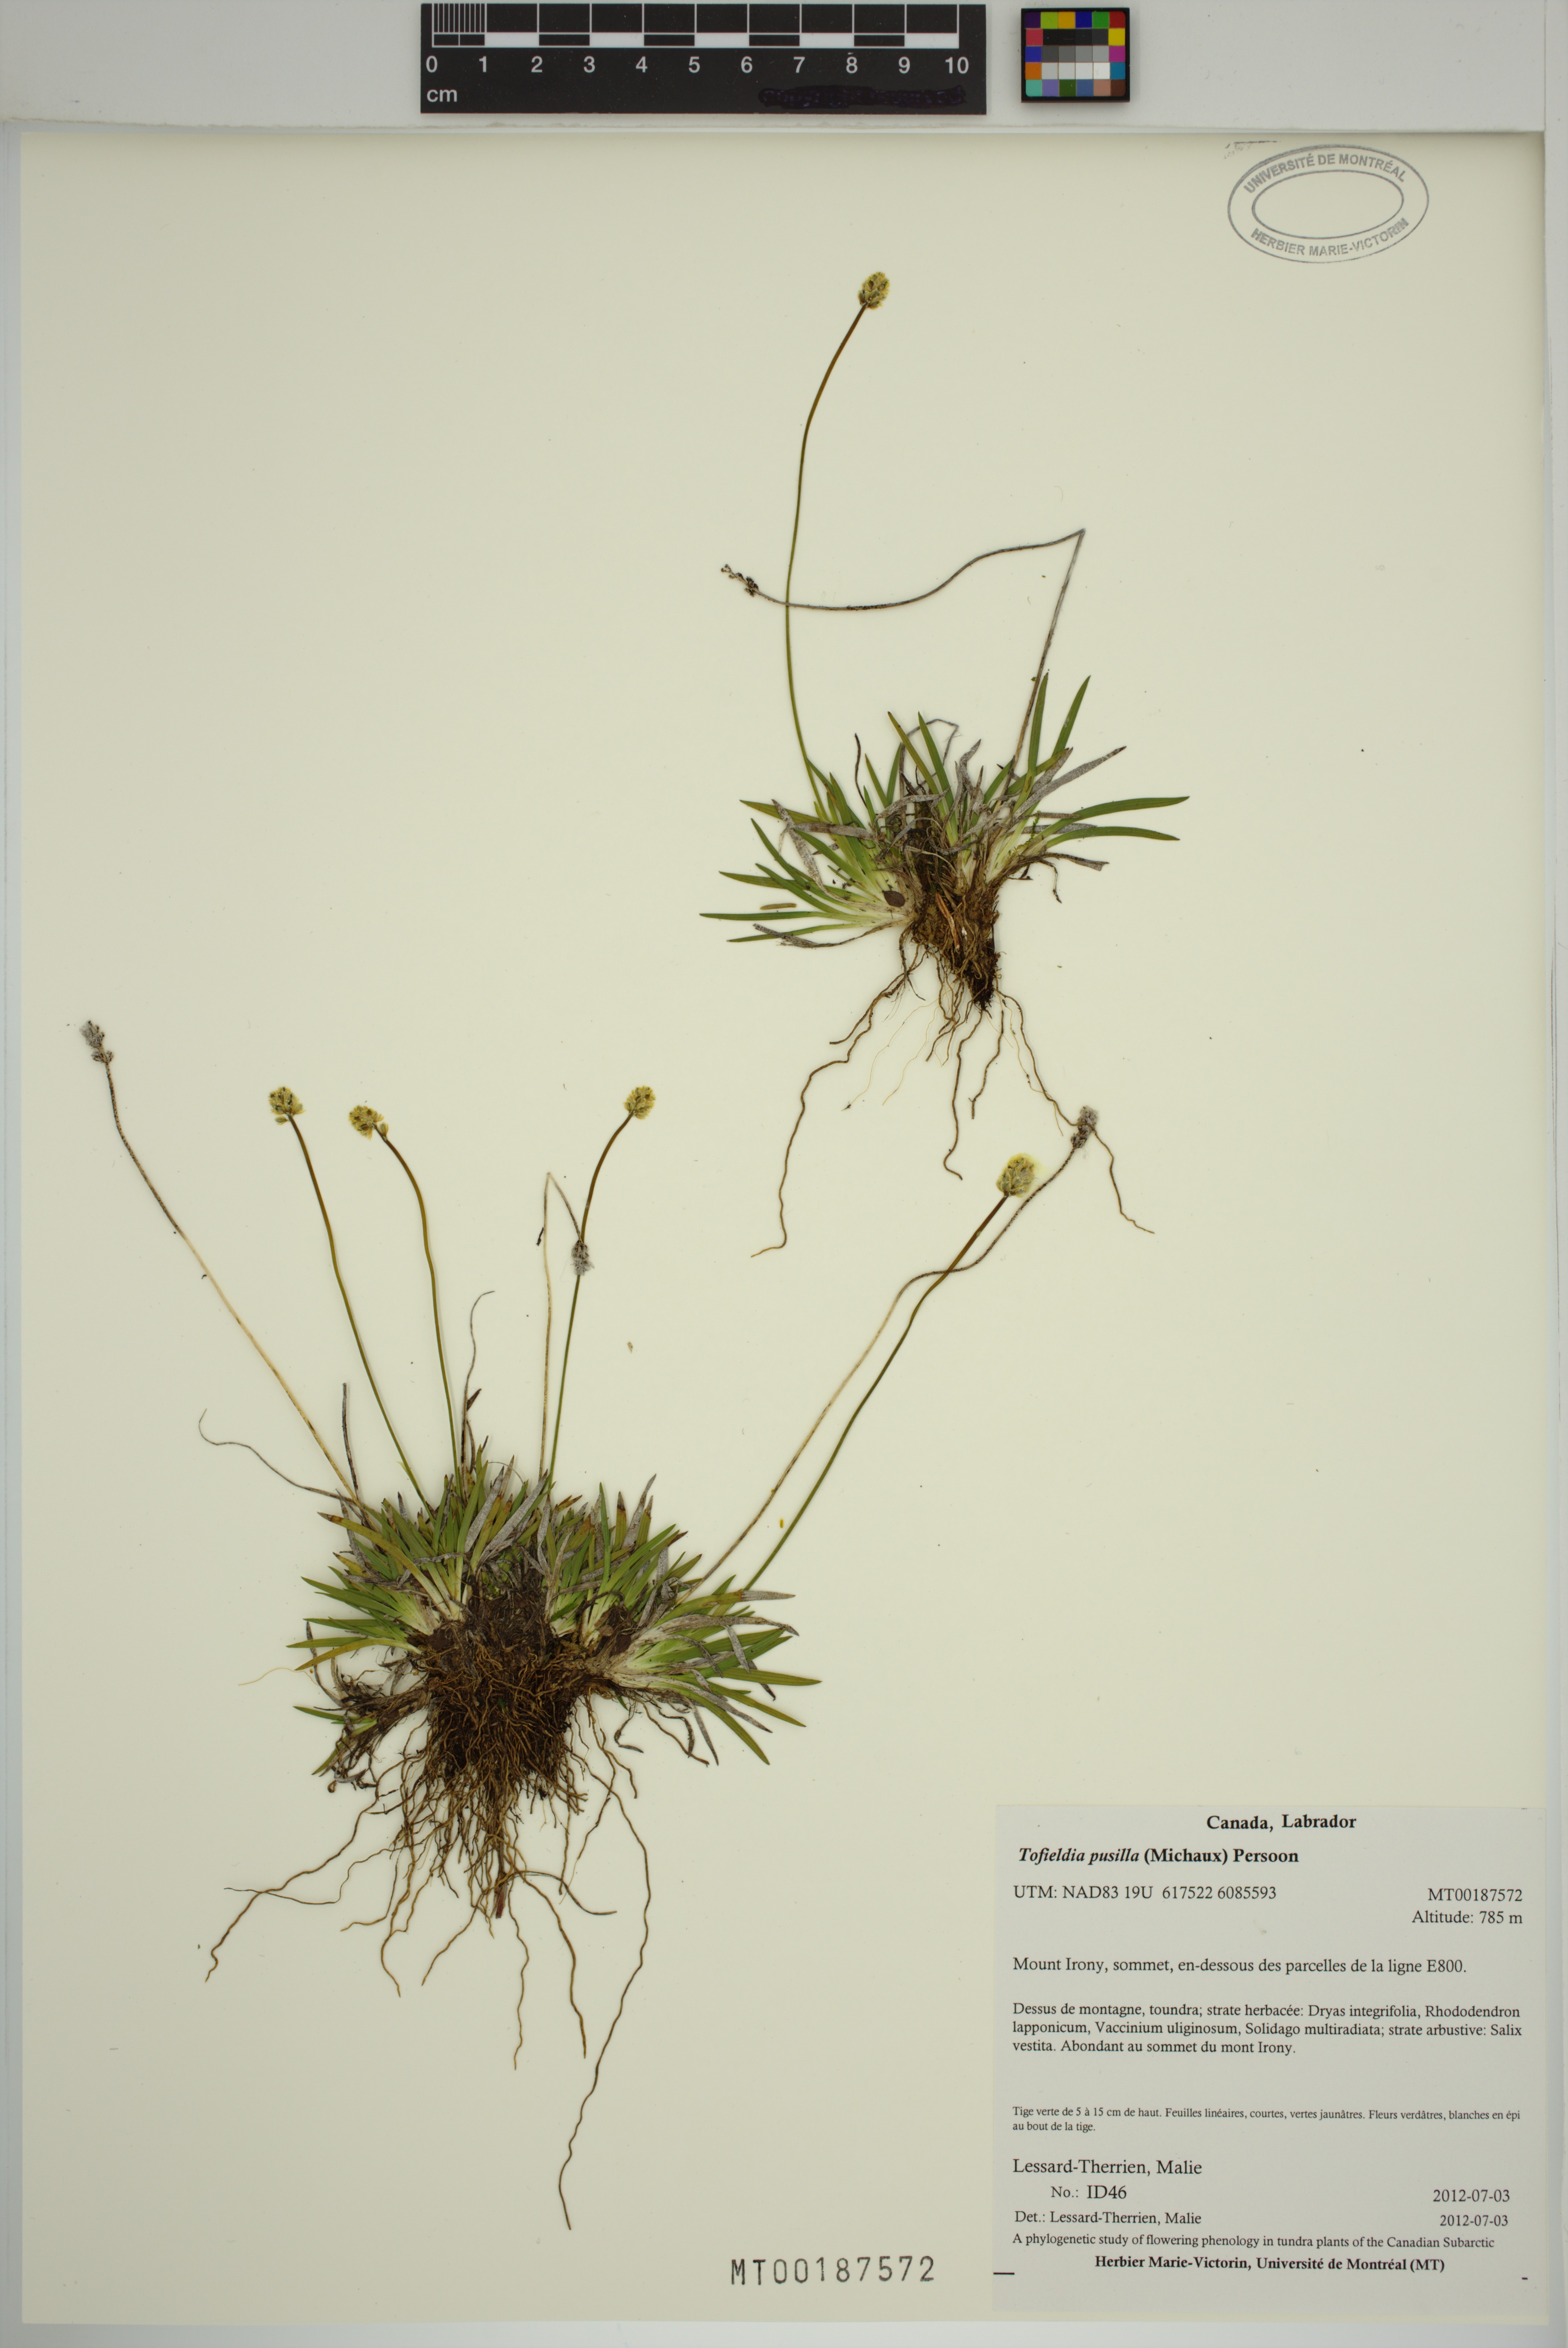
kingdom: Plantae
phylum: Tracheophyta
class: Liliopsida
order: Alismatales
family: Tofieldiaceae
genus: Tofieldia
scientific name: Tofieldia pusilla
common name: Scottish false asphodel
